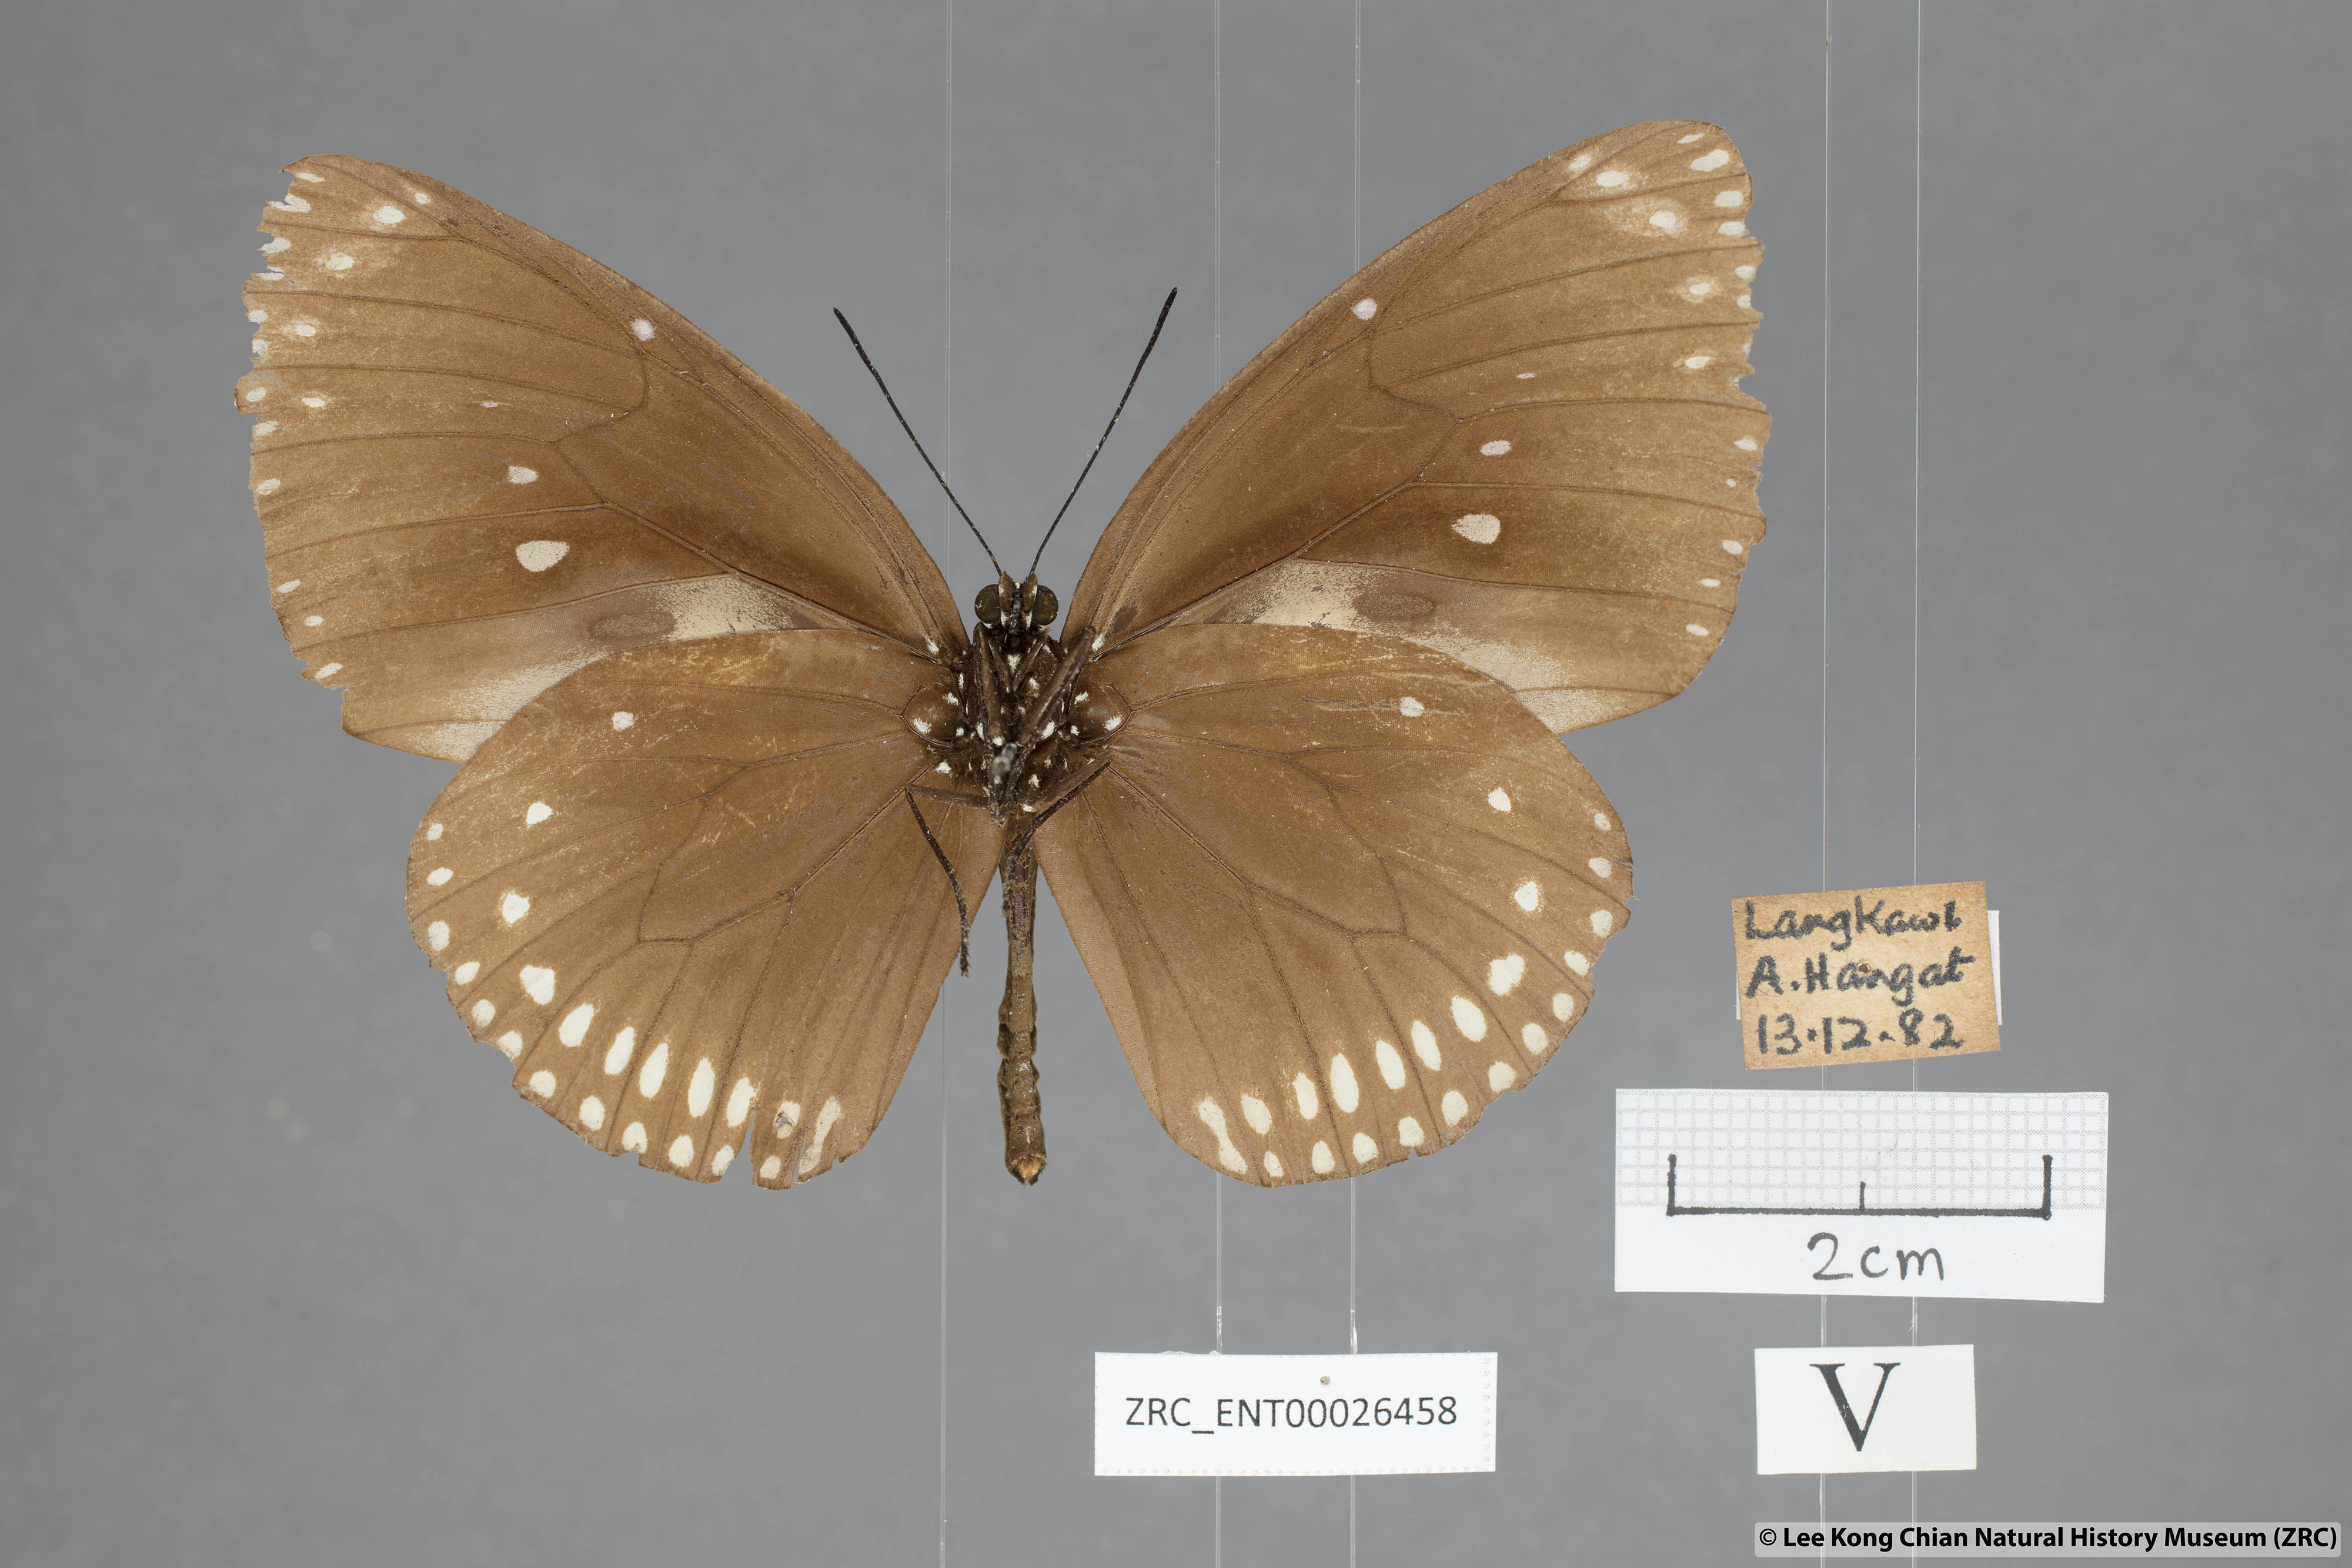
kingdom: Animalia
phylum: Arthropoda
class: Insecta
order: Lepidoptera
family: Nymphalidae
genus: Euploea
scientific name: Euploea klugii
